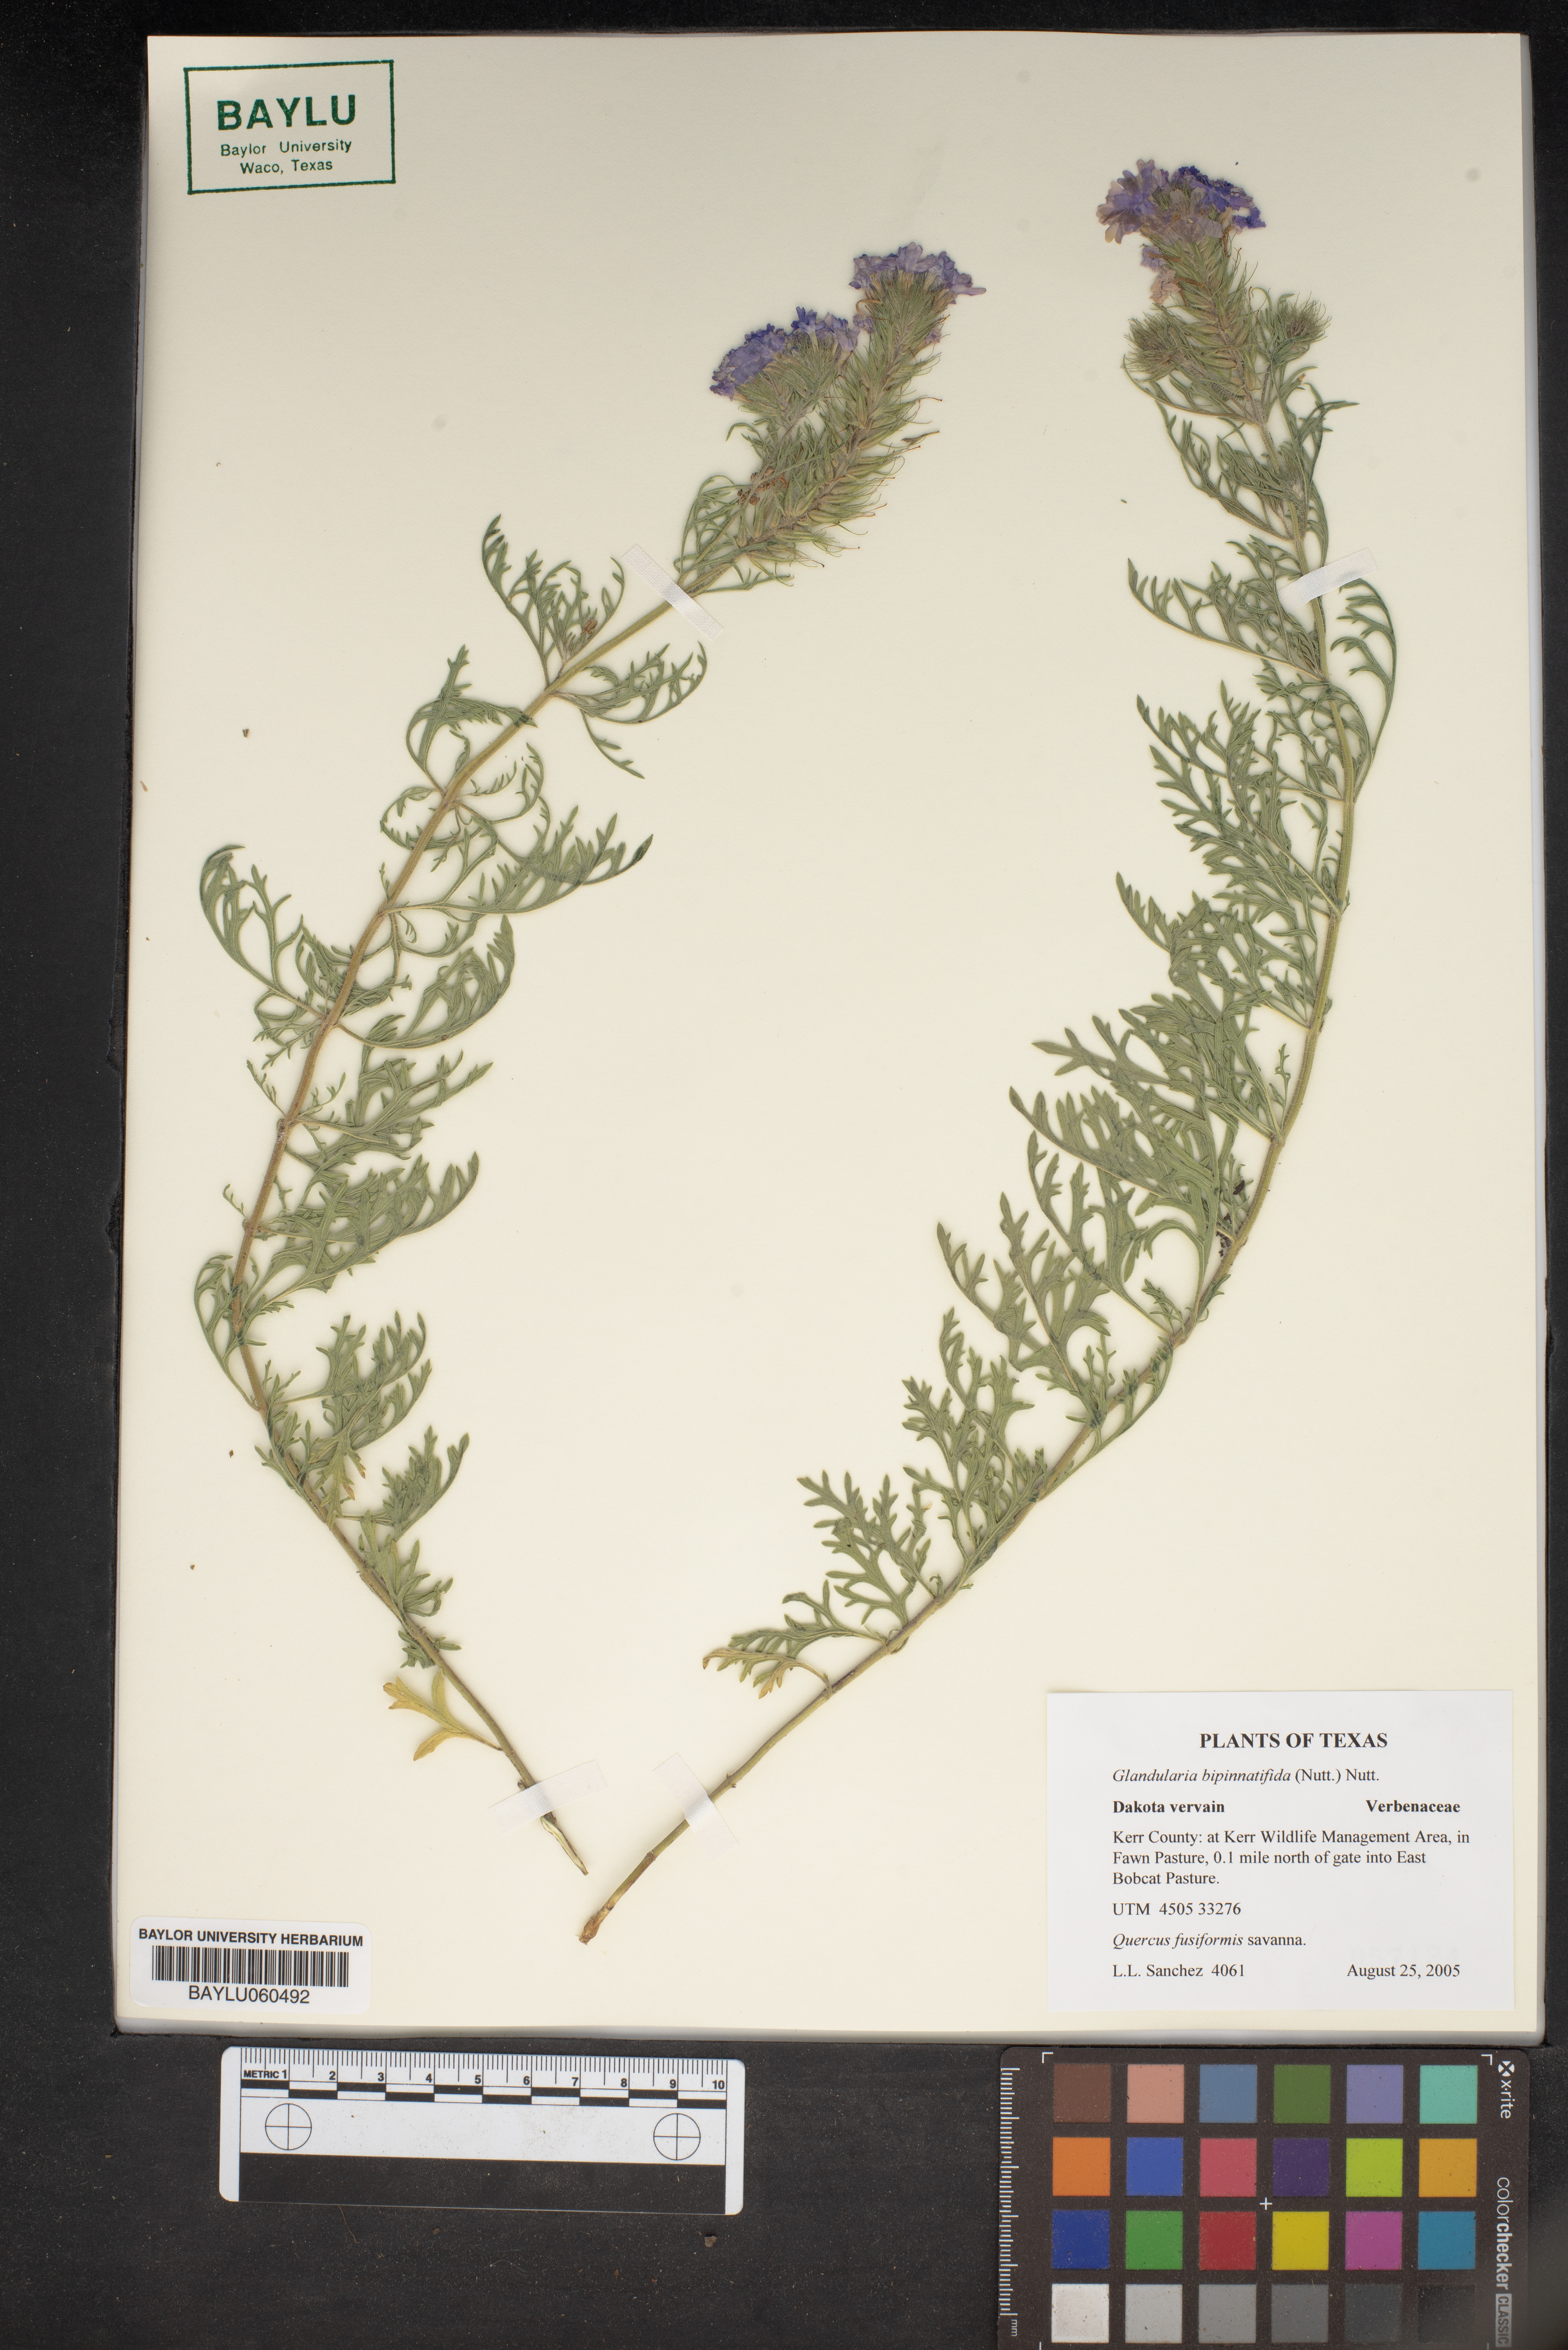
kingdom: Plantae
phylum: Tracheophyta
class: Magnoliopsida
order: Lamiales
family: Verbenaceae
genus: Verbena
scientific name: Verbena bipinnatifida
